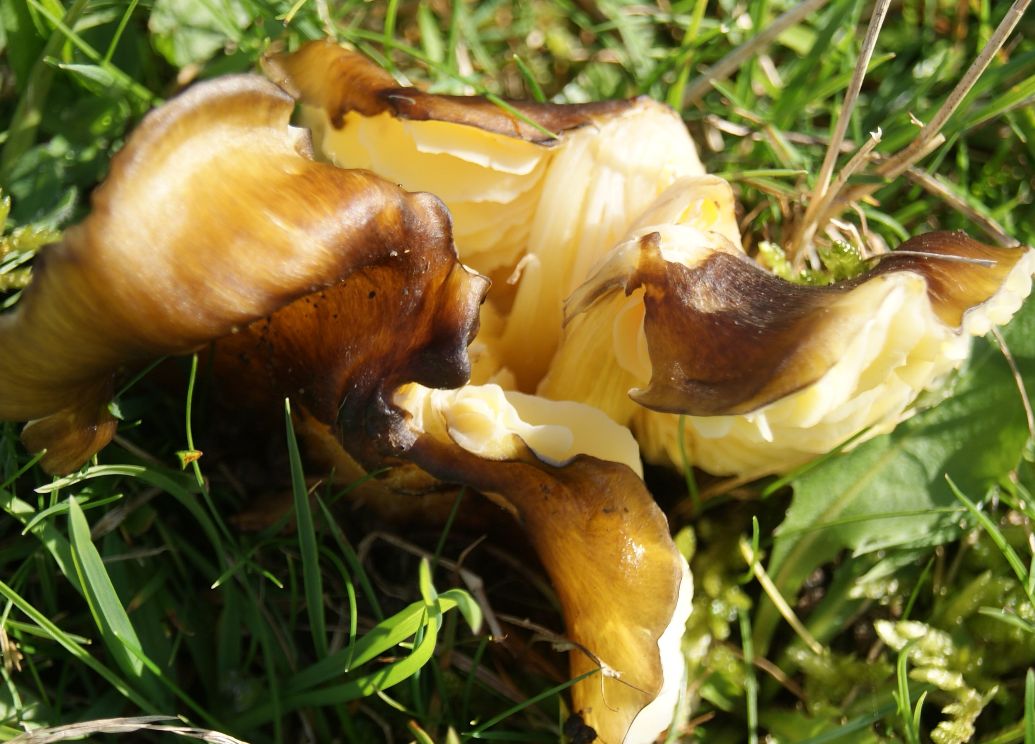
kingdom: Fungi
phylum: Basidiomycota
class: Agaricomycetes
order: Agaricales
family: Hygrophoraceae
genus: Hygrocybe
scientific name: Hygrocybe spadicea
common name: daddelbrun vokshat
